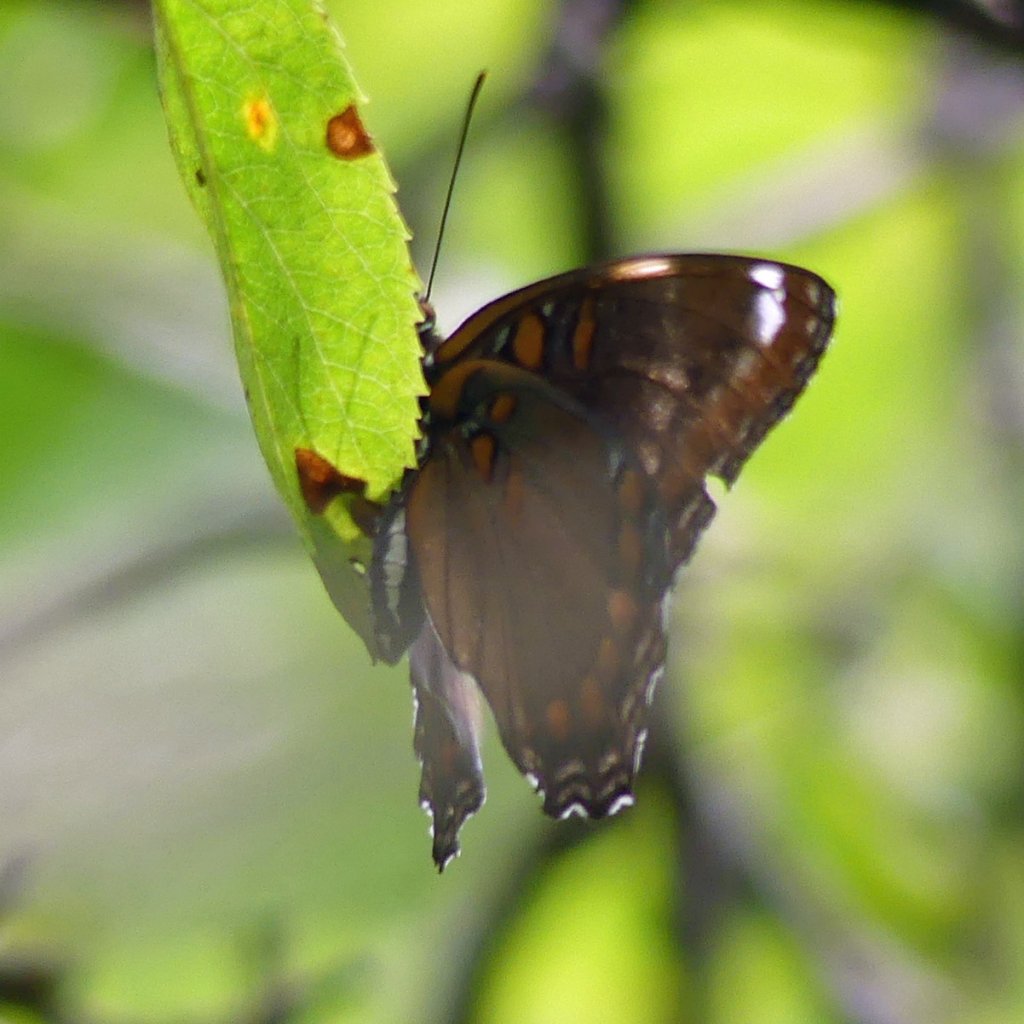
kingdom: Animalia
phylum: Arthropoda
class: Insecta
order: Lepidoptera
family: Nymphalidae
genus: Limenitis
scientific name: Limenitis astyanax
